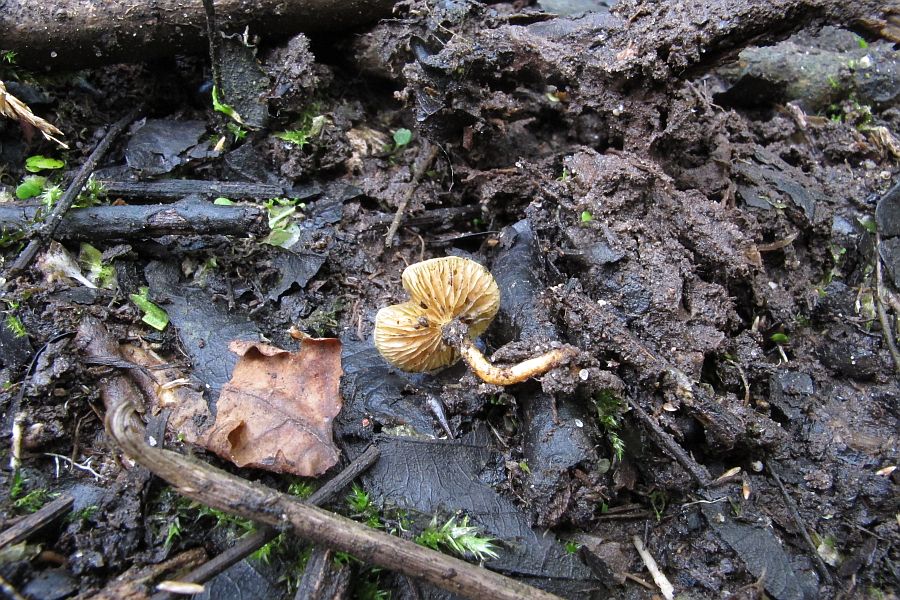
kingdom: Fungi
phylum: Basidiomycota
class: Agaricomycetes
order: Agaricales
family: Hymenogastraceae
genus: Naucoria
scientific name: Naucoria celluloderma
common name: enlig knaphat
